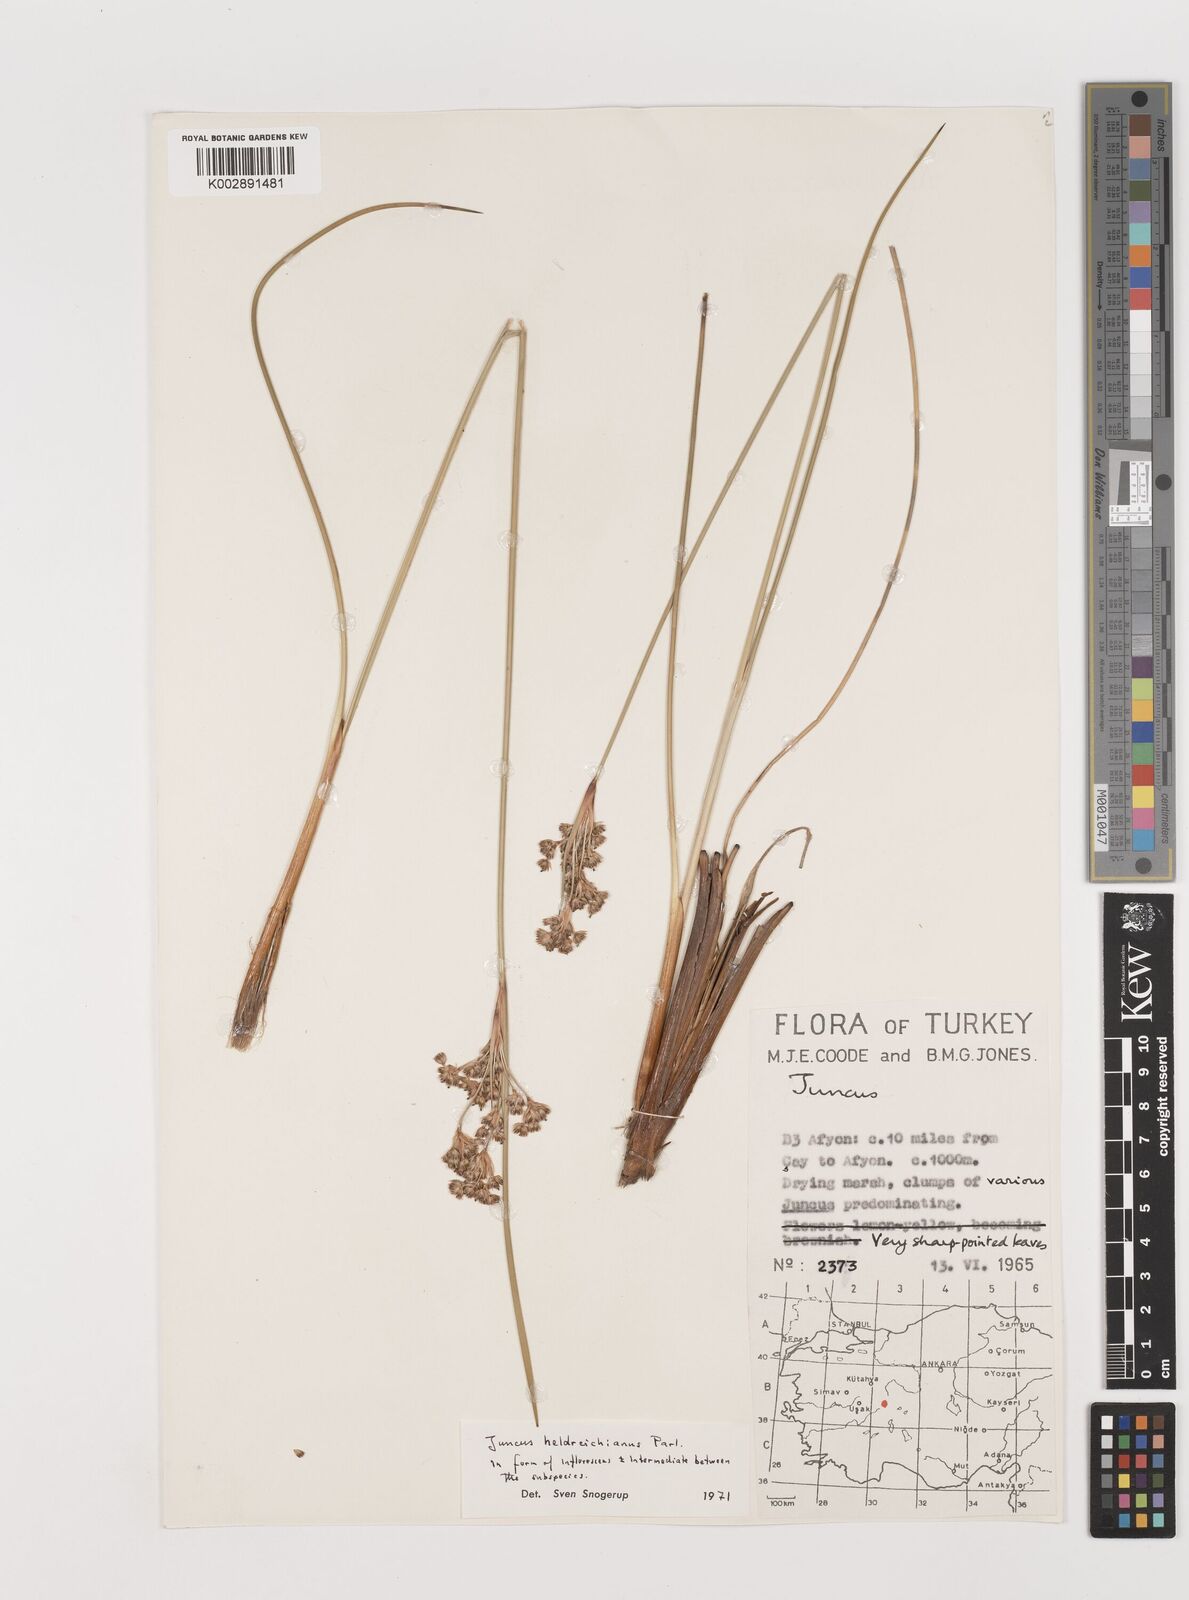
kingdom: Plantae
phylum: Tracheophyta
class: Liliopsida
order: Poales
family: Juncaceae
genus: Juncus
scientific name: Juncus heldreichianus
